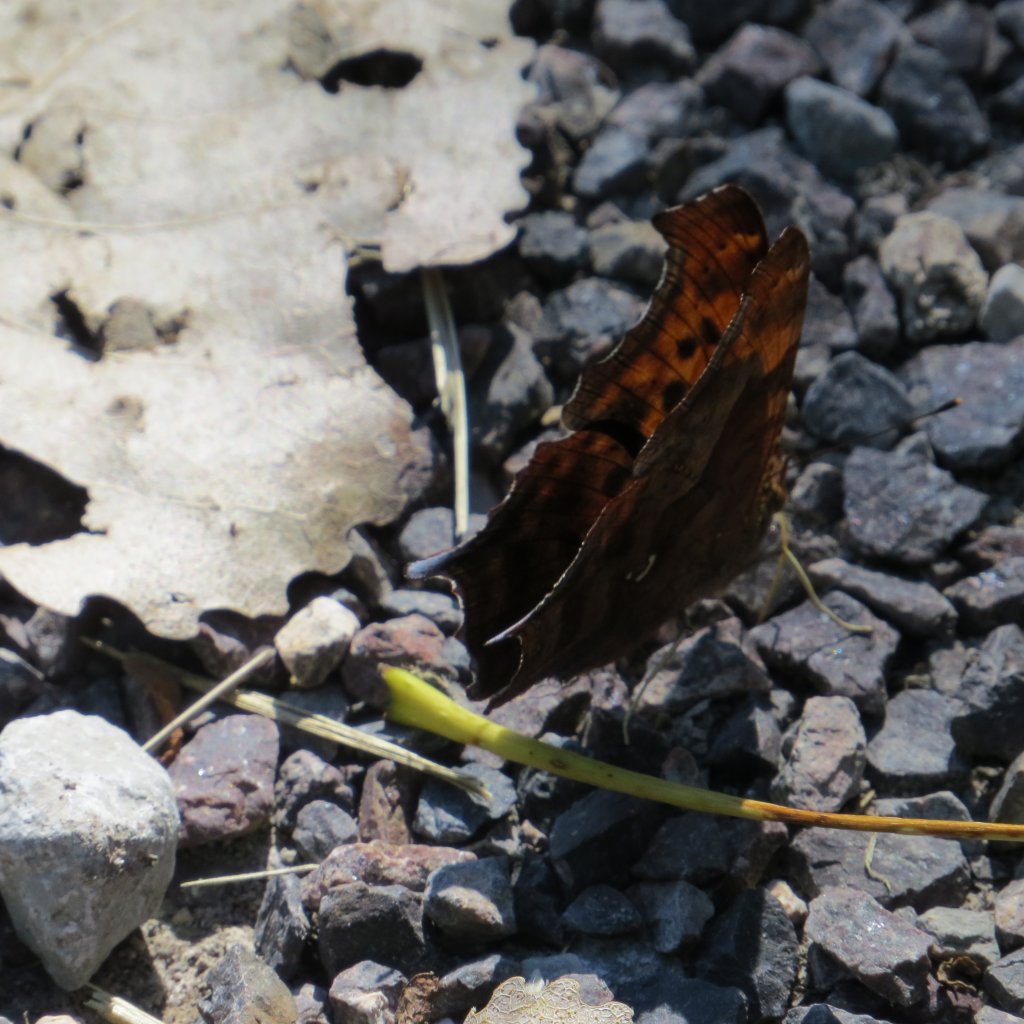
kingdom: Animalia
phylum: Arthropoda
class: Insecta
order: Lepidoptera
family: Nymphalidae
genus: Polygonia
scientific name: Polygonia interrogationis
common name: Question Mark
